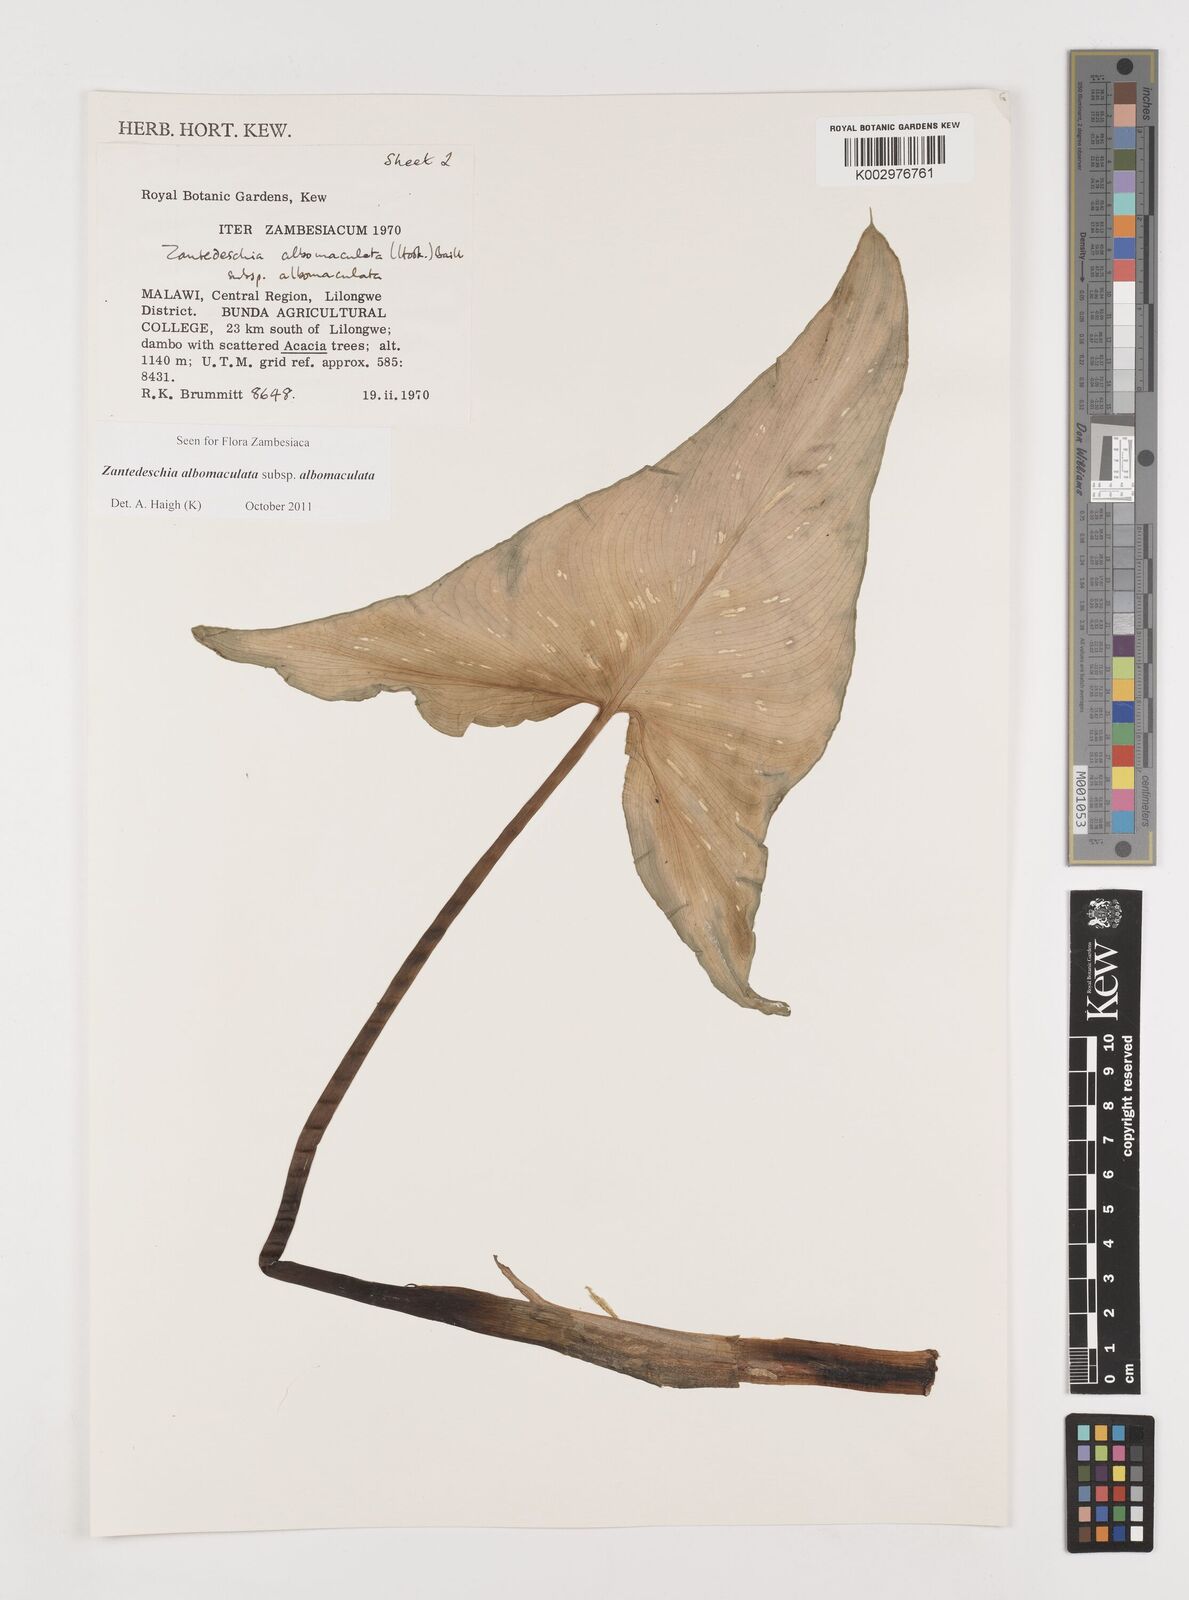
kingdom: Plantae
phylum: Tracheophyta
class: Liliopsida
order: Alismatales
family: Araceae
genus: Zantedeschia
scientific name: Zantedeschia albomaculata
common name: Spotted calla lily
